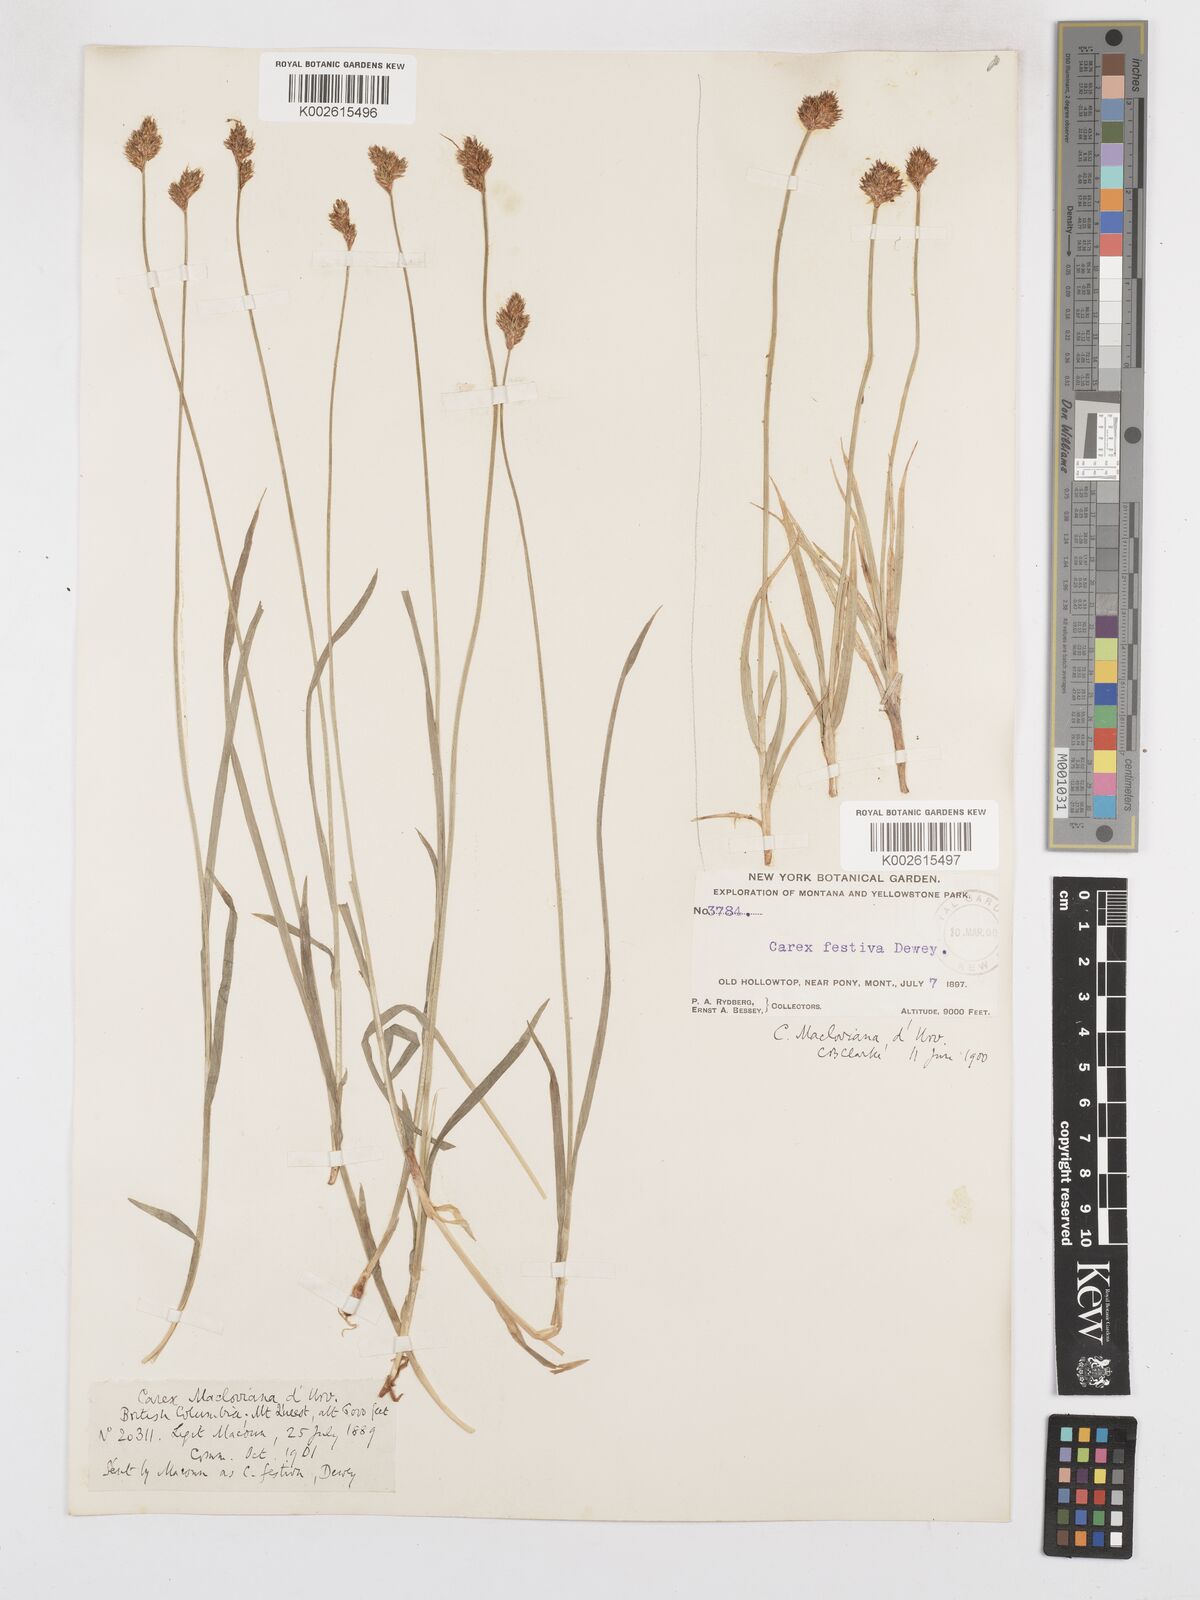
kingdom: Plantae
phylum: Tracheophyta
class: Liliopsida
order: Poales
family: Cyperaceae
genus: Carex
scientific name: Carex macloviana
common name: Falkland island sedge
